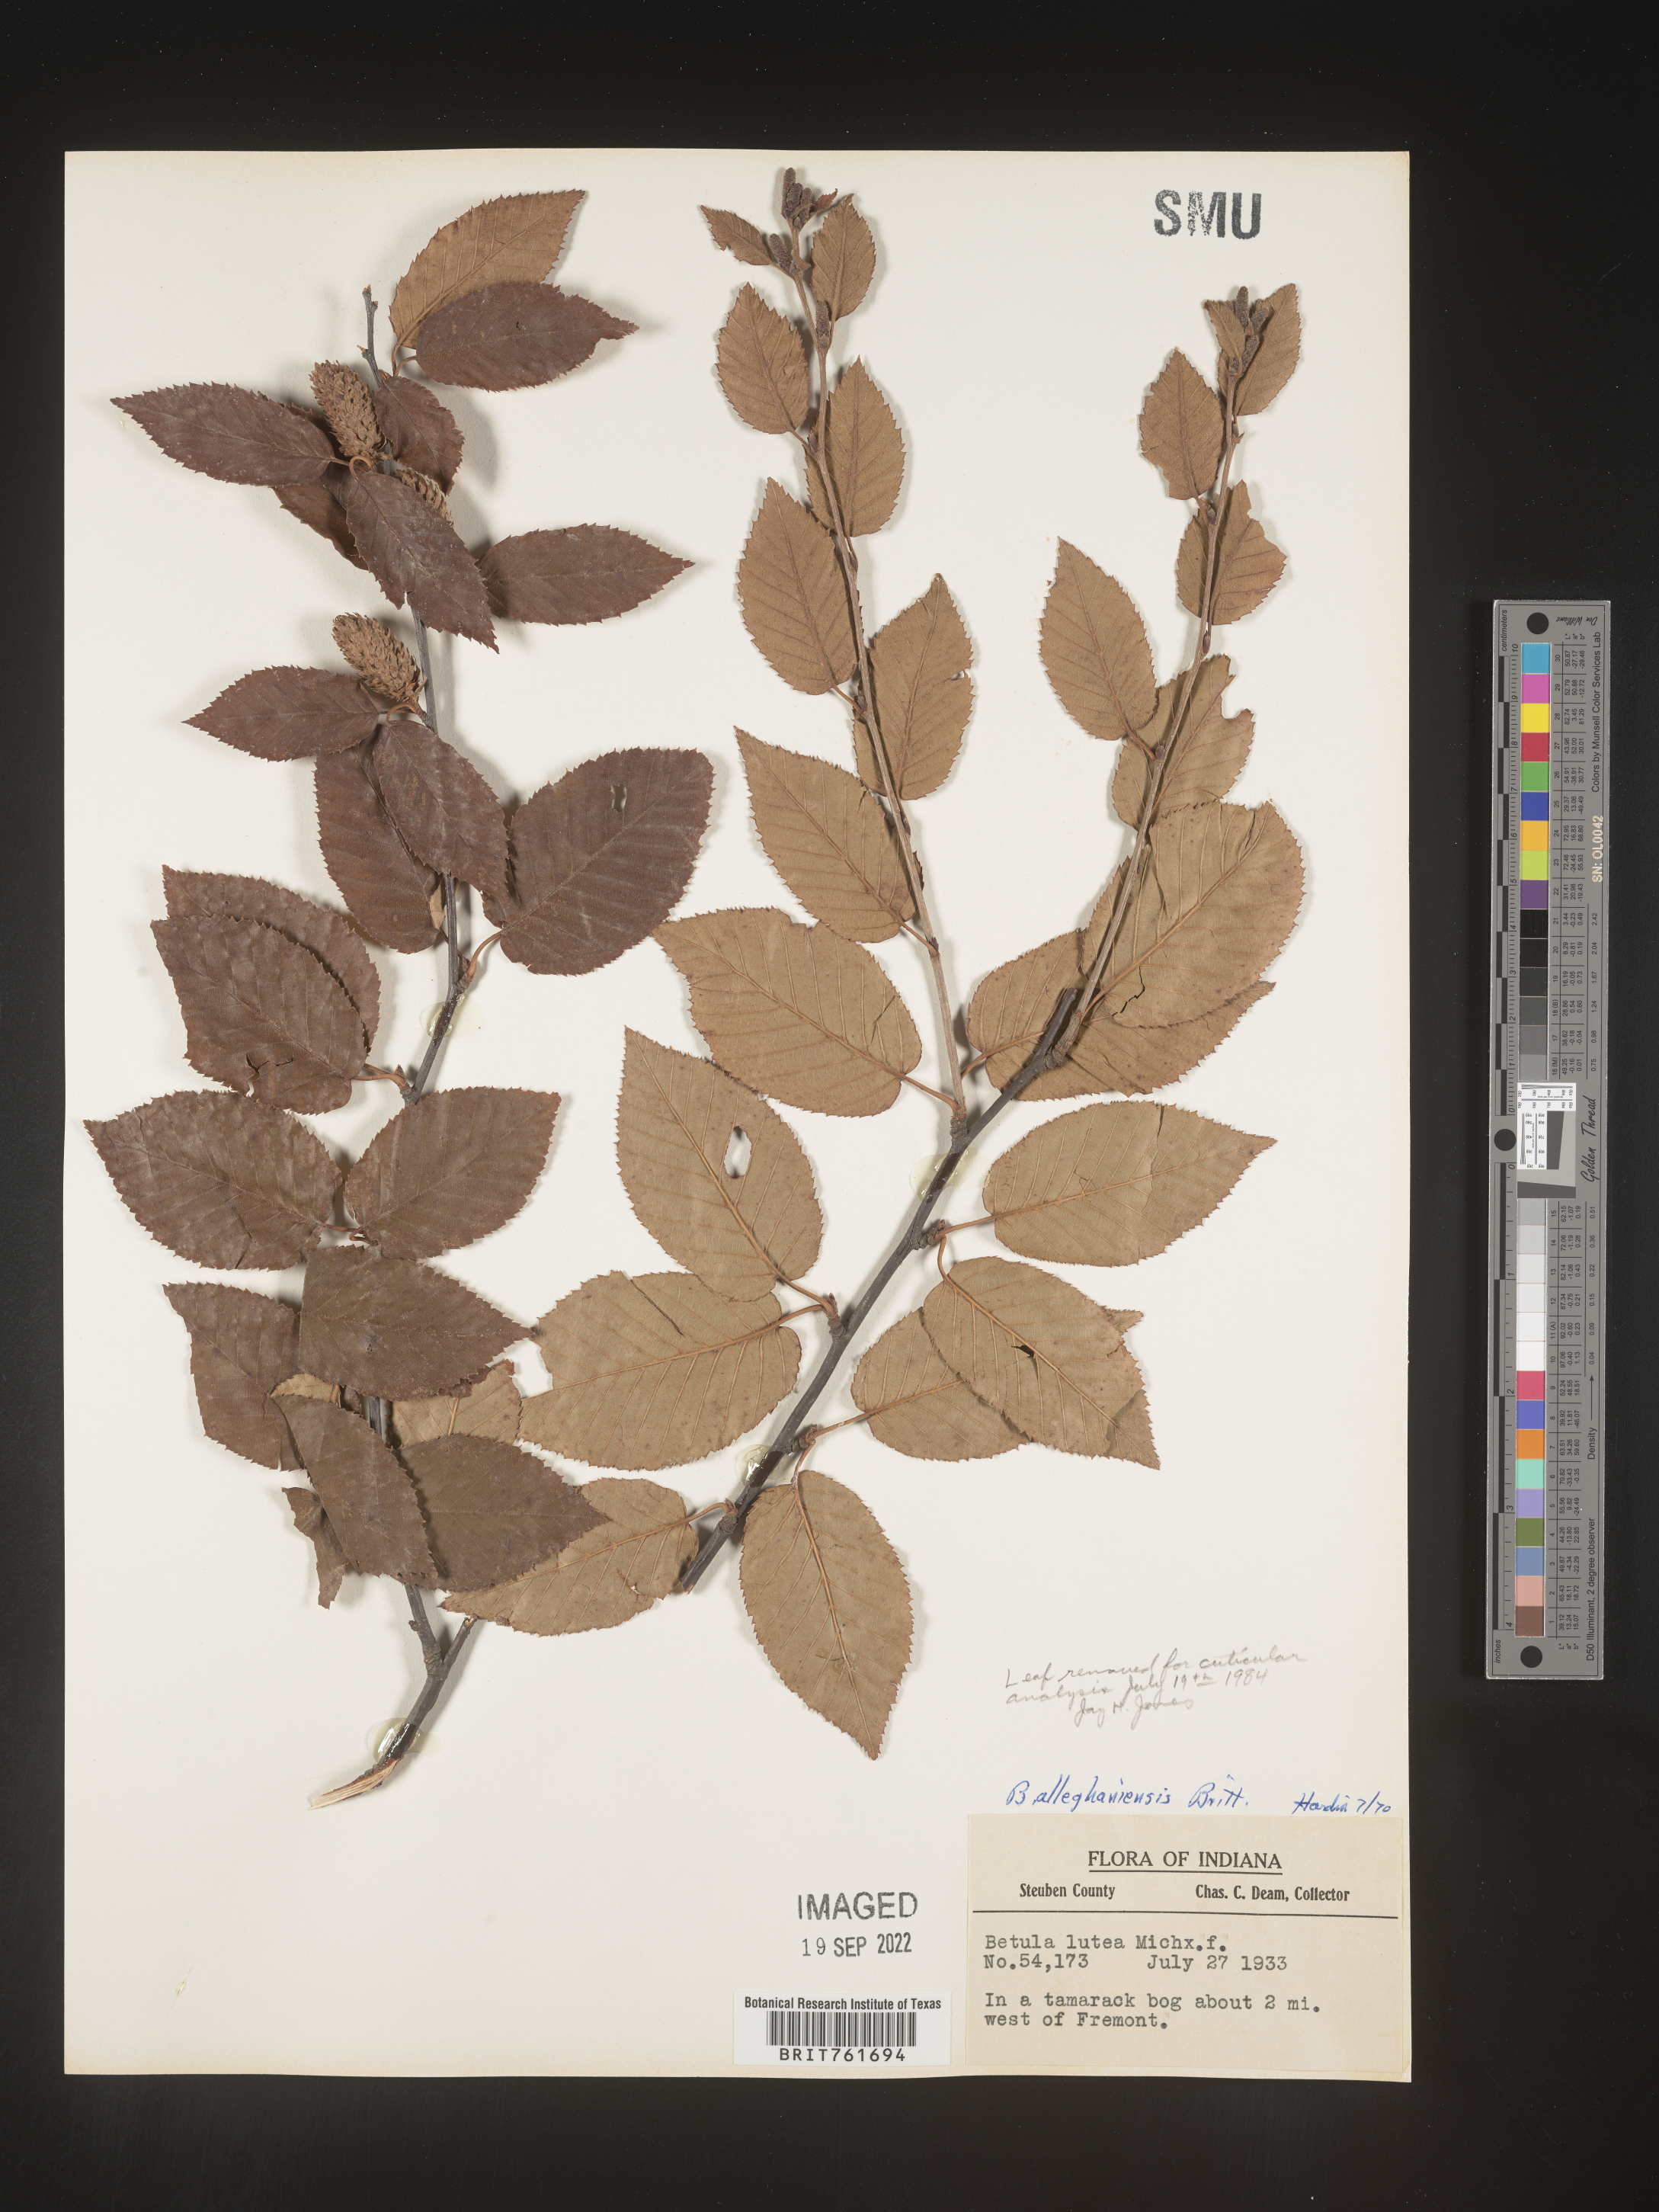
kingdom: Plantae
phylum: Tracheophyta
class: Magnoliopsida
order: Fagales
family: Betulaceae
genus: Betula
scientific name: Betula alleghaniensis
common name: Yellow birch
